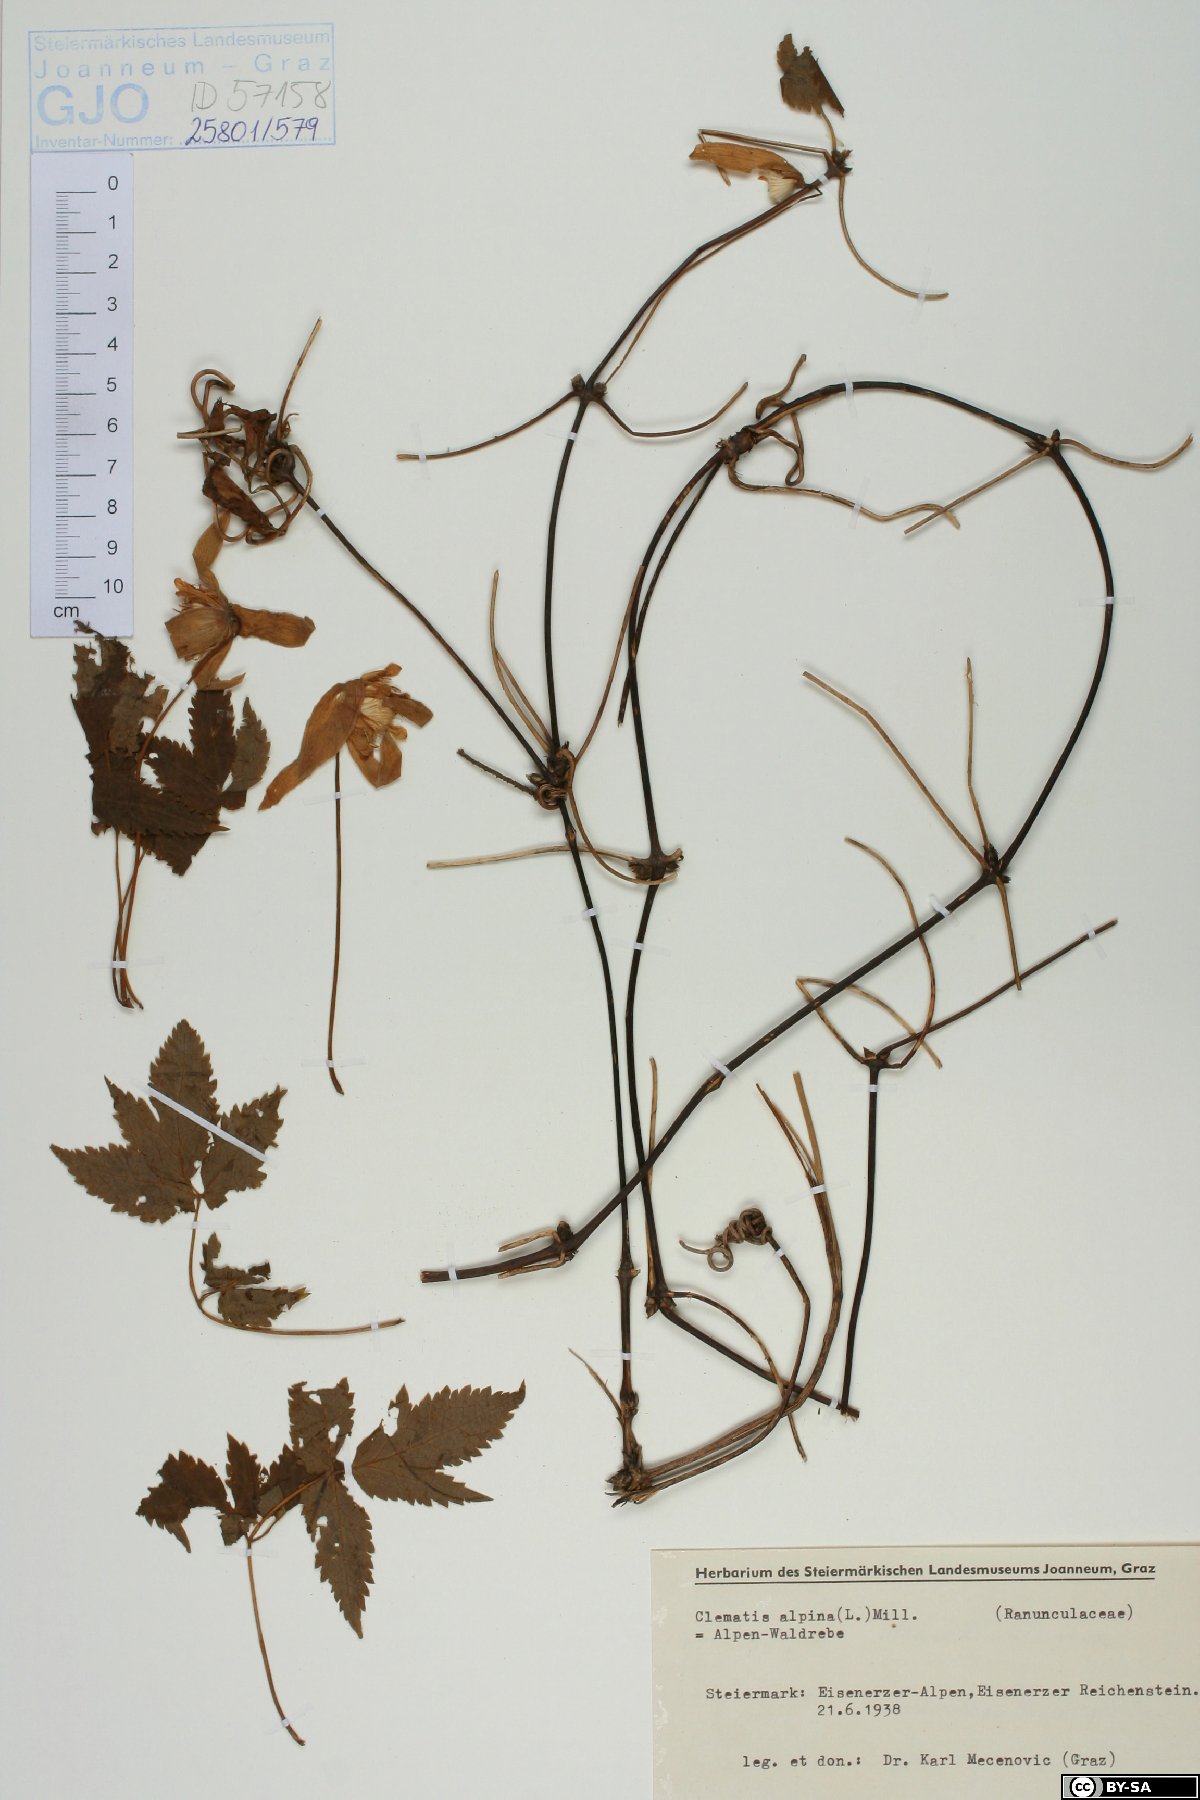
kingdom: Plantae
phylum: Tracheophyta
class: Magnoliopsida
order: Ranunculales
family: Ranunculaceae
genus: Clematis
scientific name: Clematis alpina
